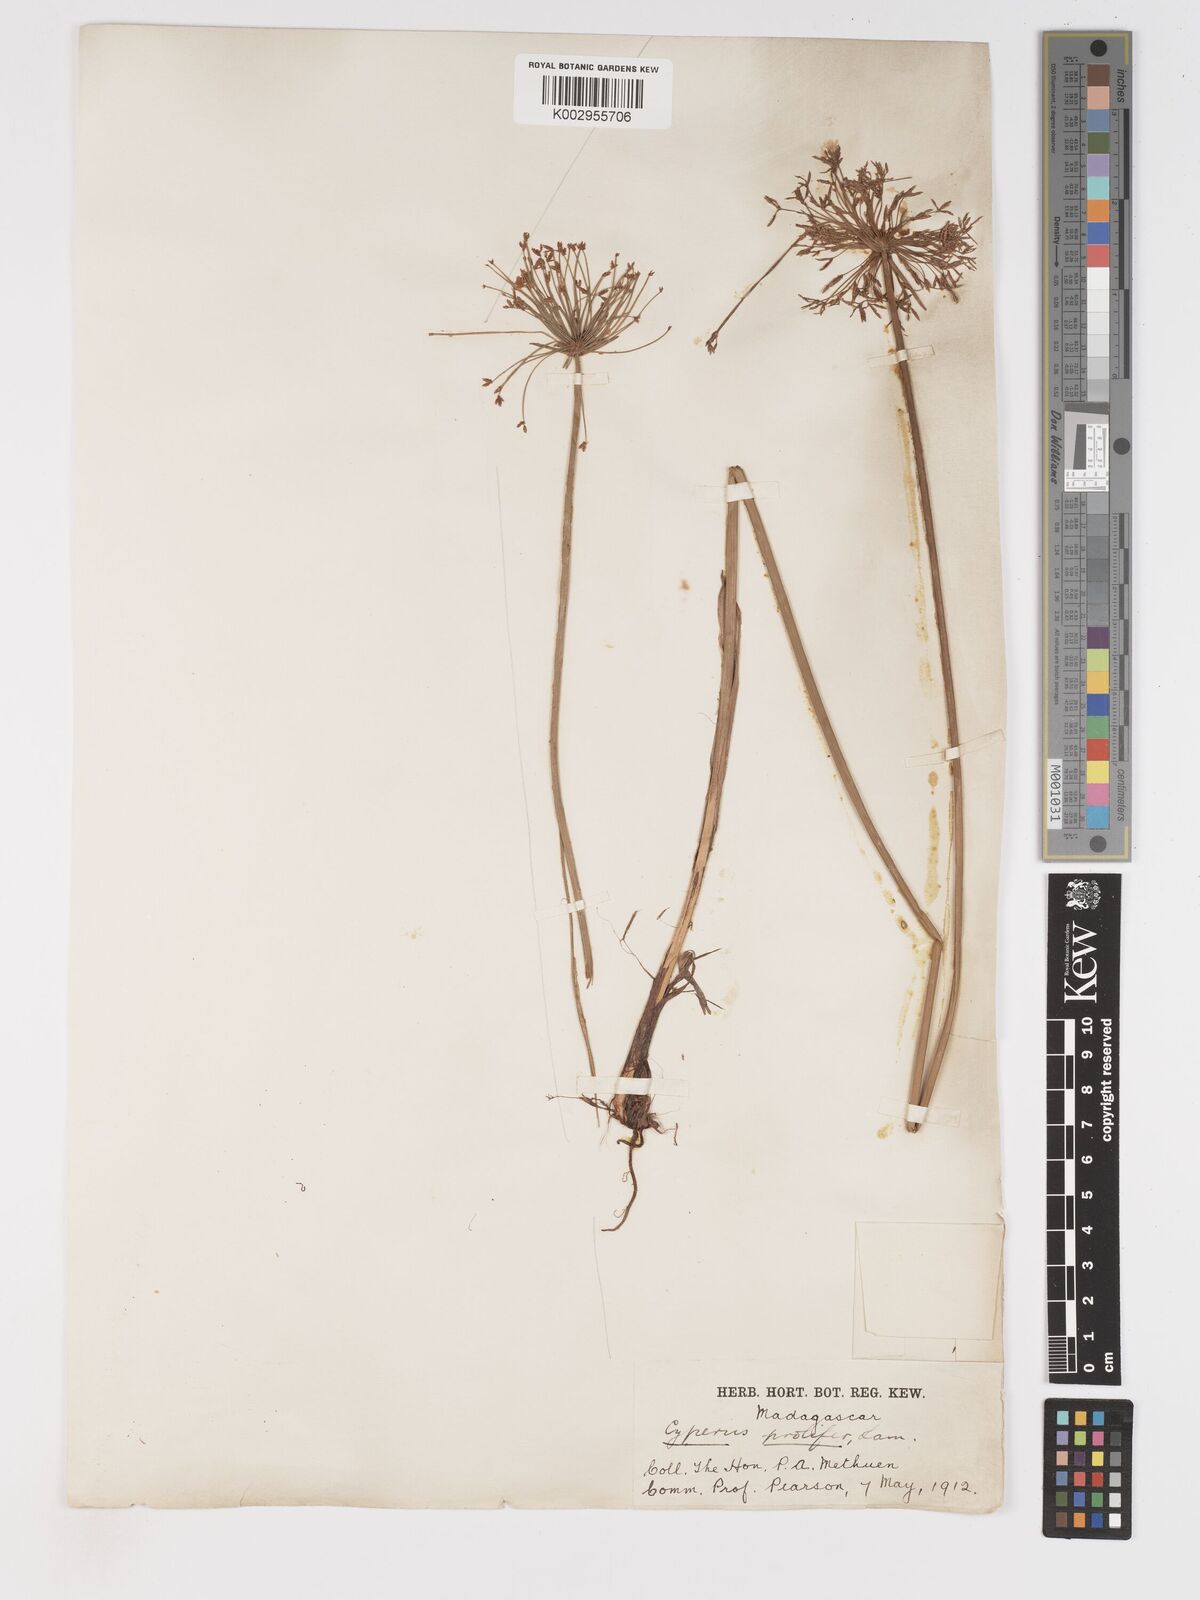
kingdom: Plantae
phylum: Tracheophyta
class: Liliopsida
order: Poales
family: Cyperaceae
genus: Cyperus
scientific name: Cyperus prolifer
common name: Miniature flatsedge
